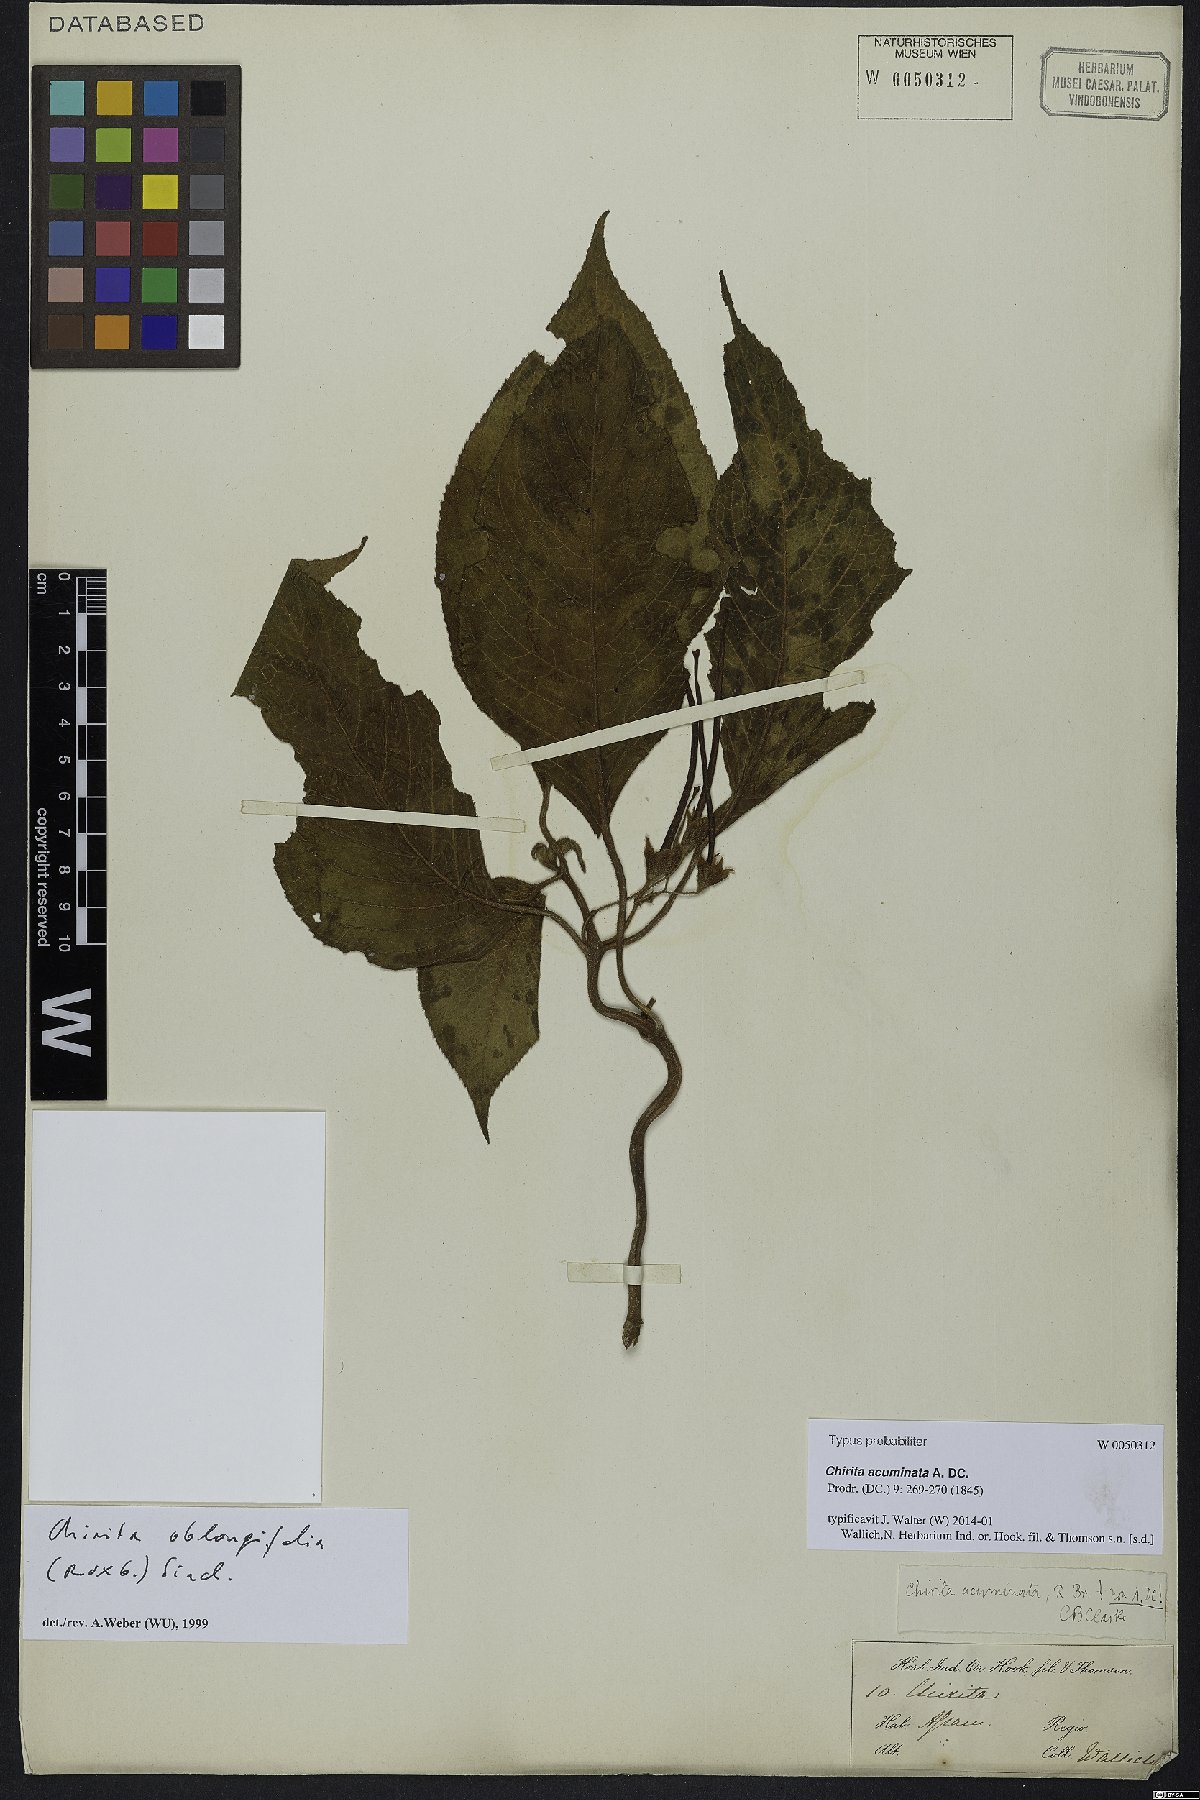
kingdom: Plantae
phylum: Tracheophyta
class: Magnoliopsida
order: Lamiales
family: Gesneriaceae
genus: Didymocarpus
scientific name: Didymocarpus acuminatus
